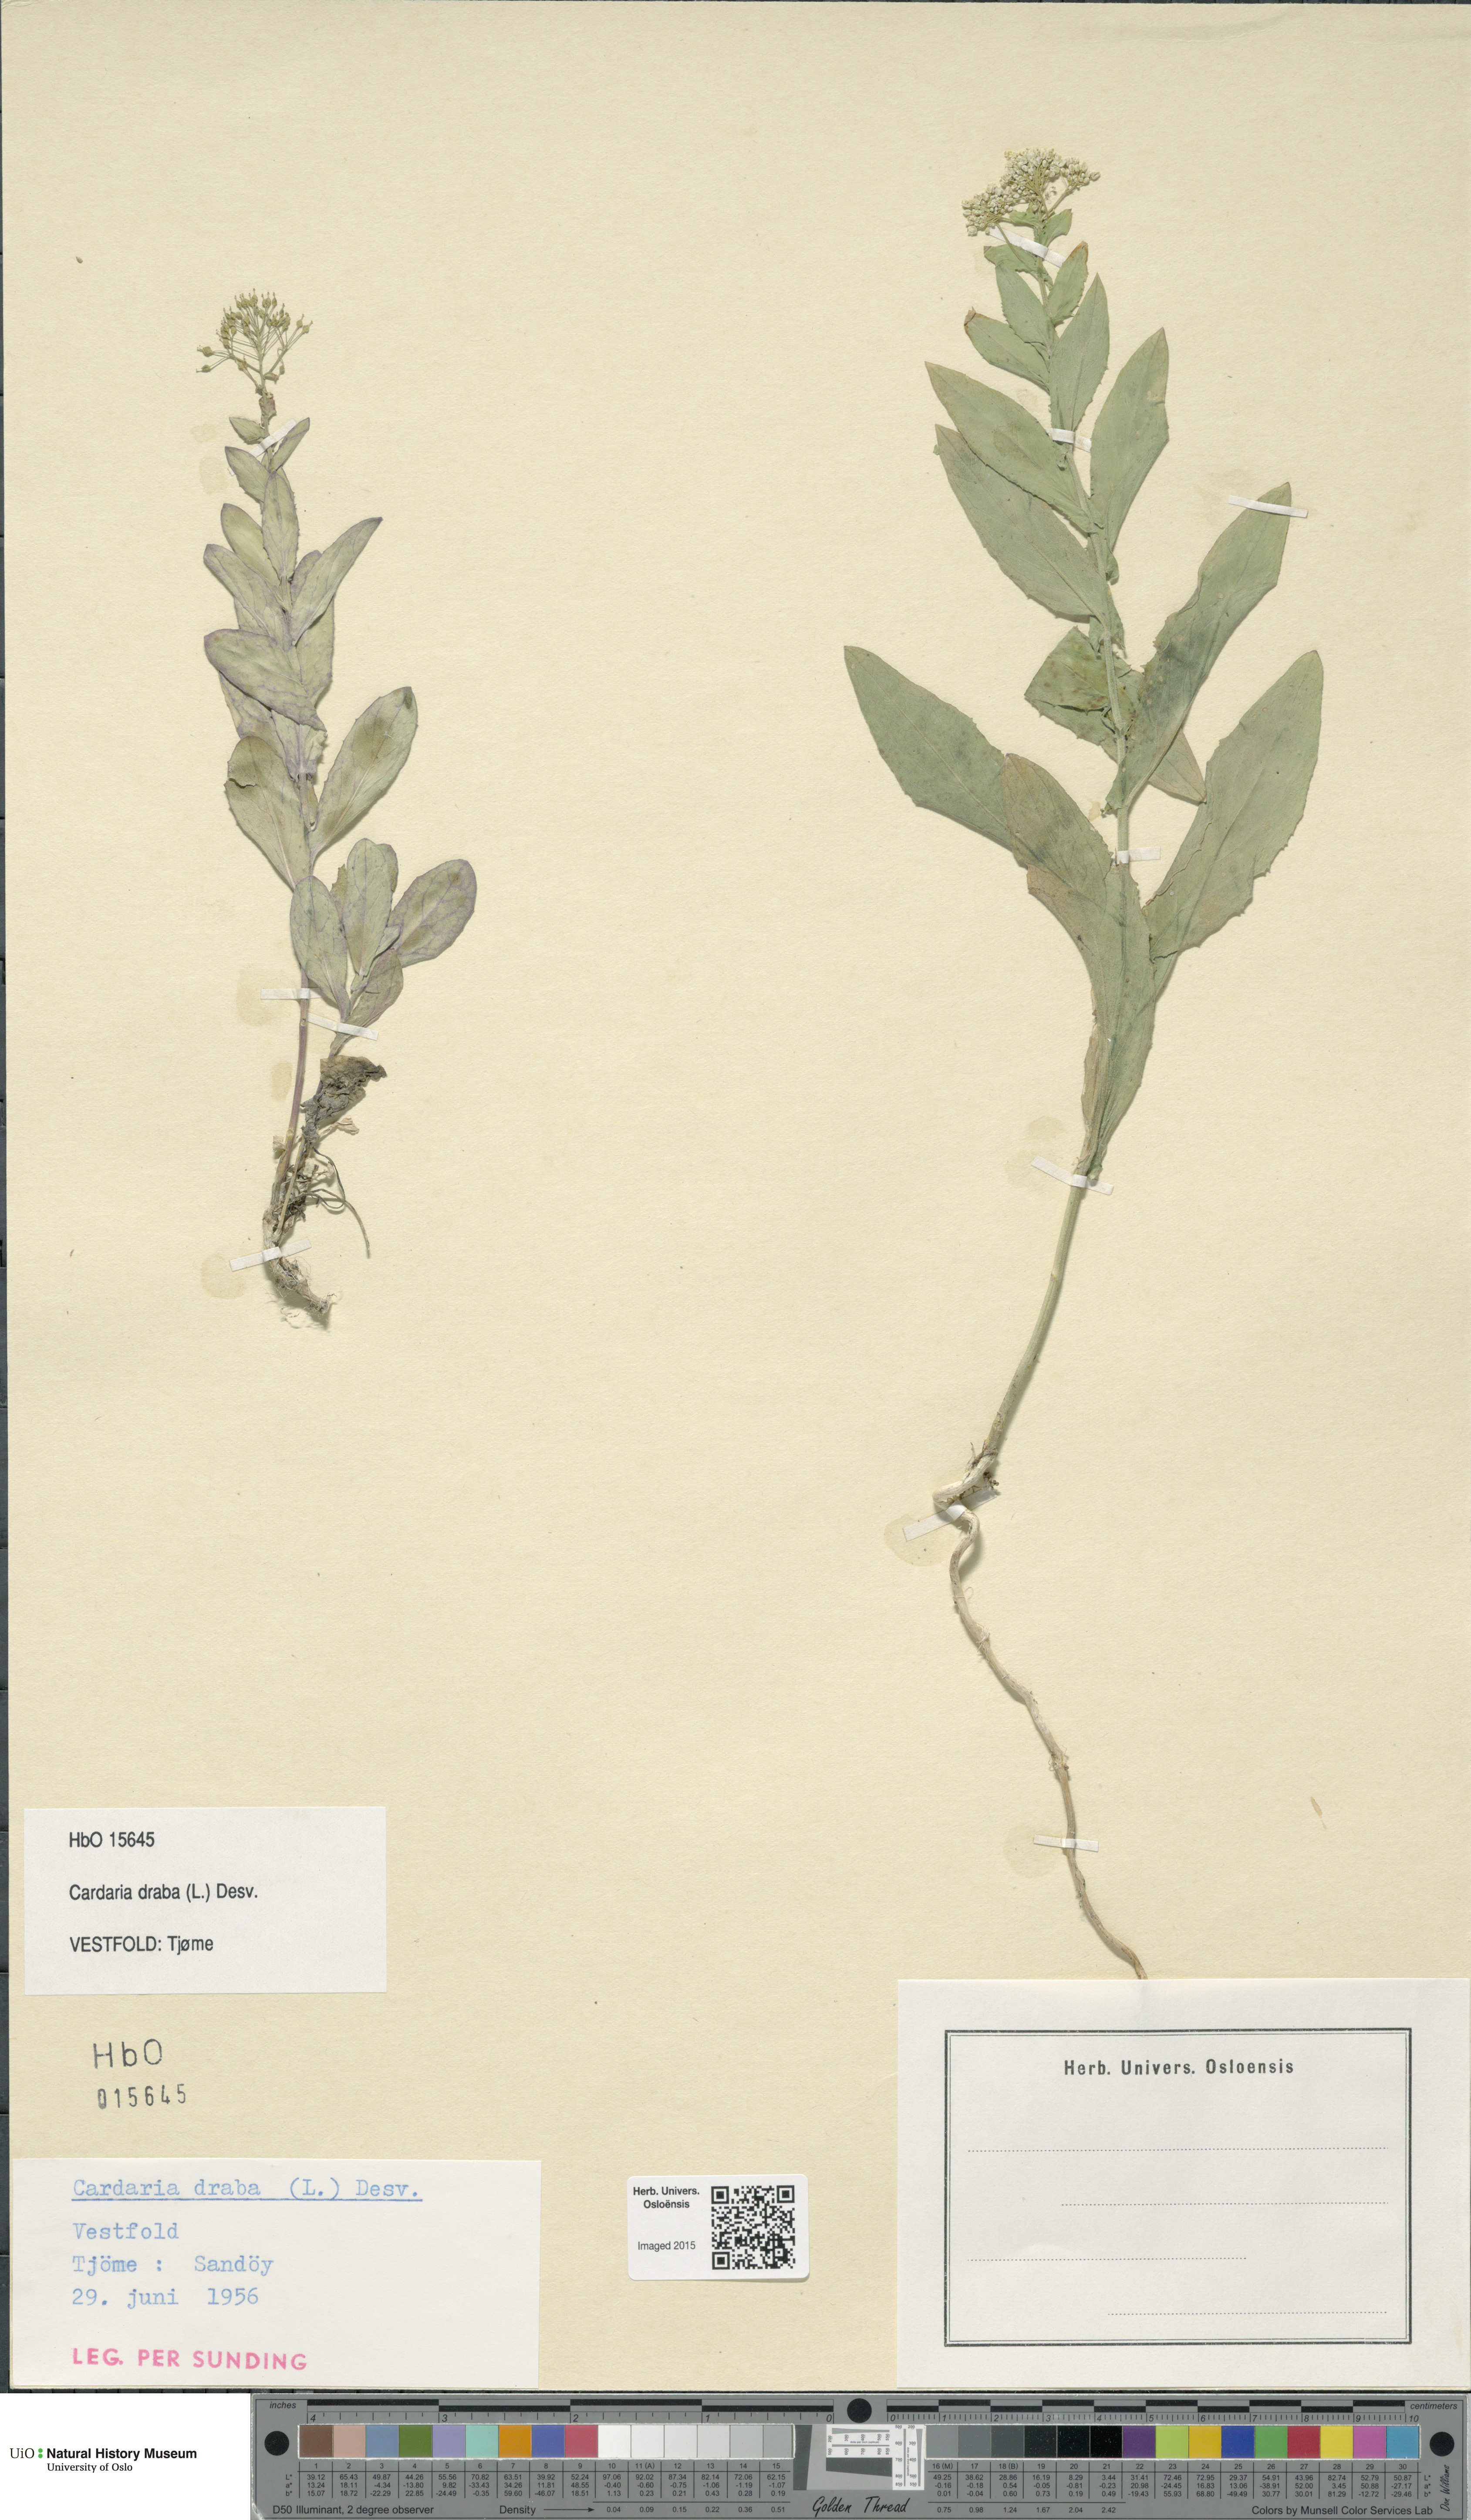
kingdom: Plantae
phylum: Tracheophyta
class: Magnoliopsida
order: Brassicales
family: Brassicaceae
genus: Lepidium
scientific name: Lepidium draba
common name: Hoary cress
